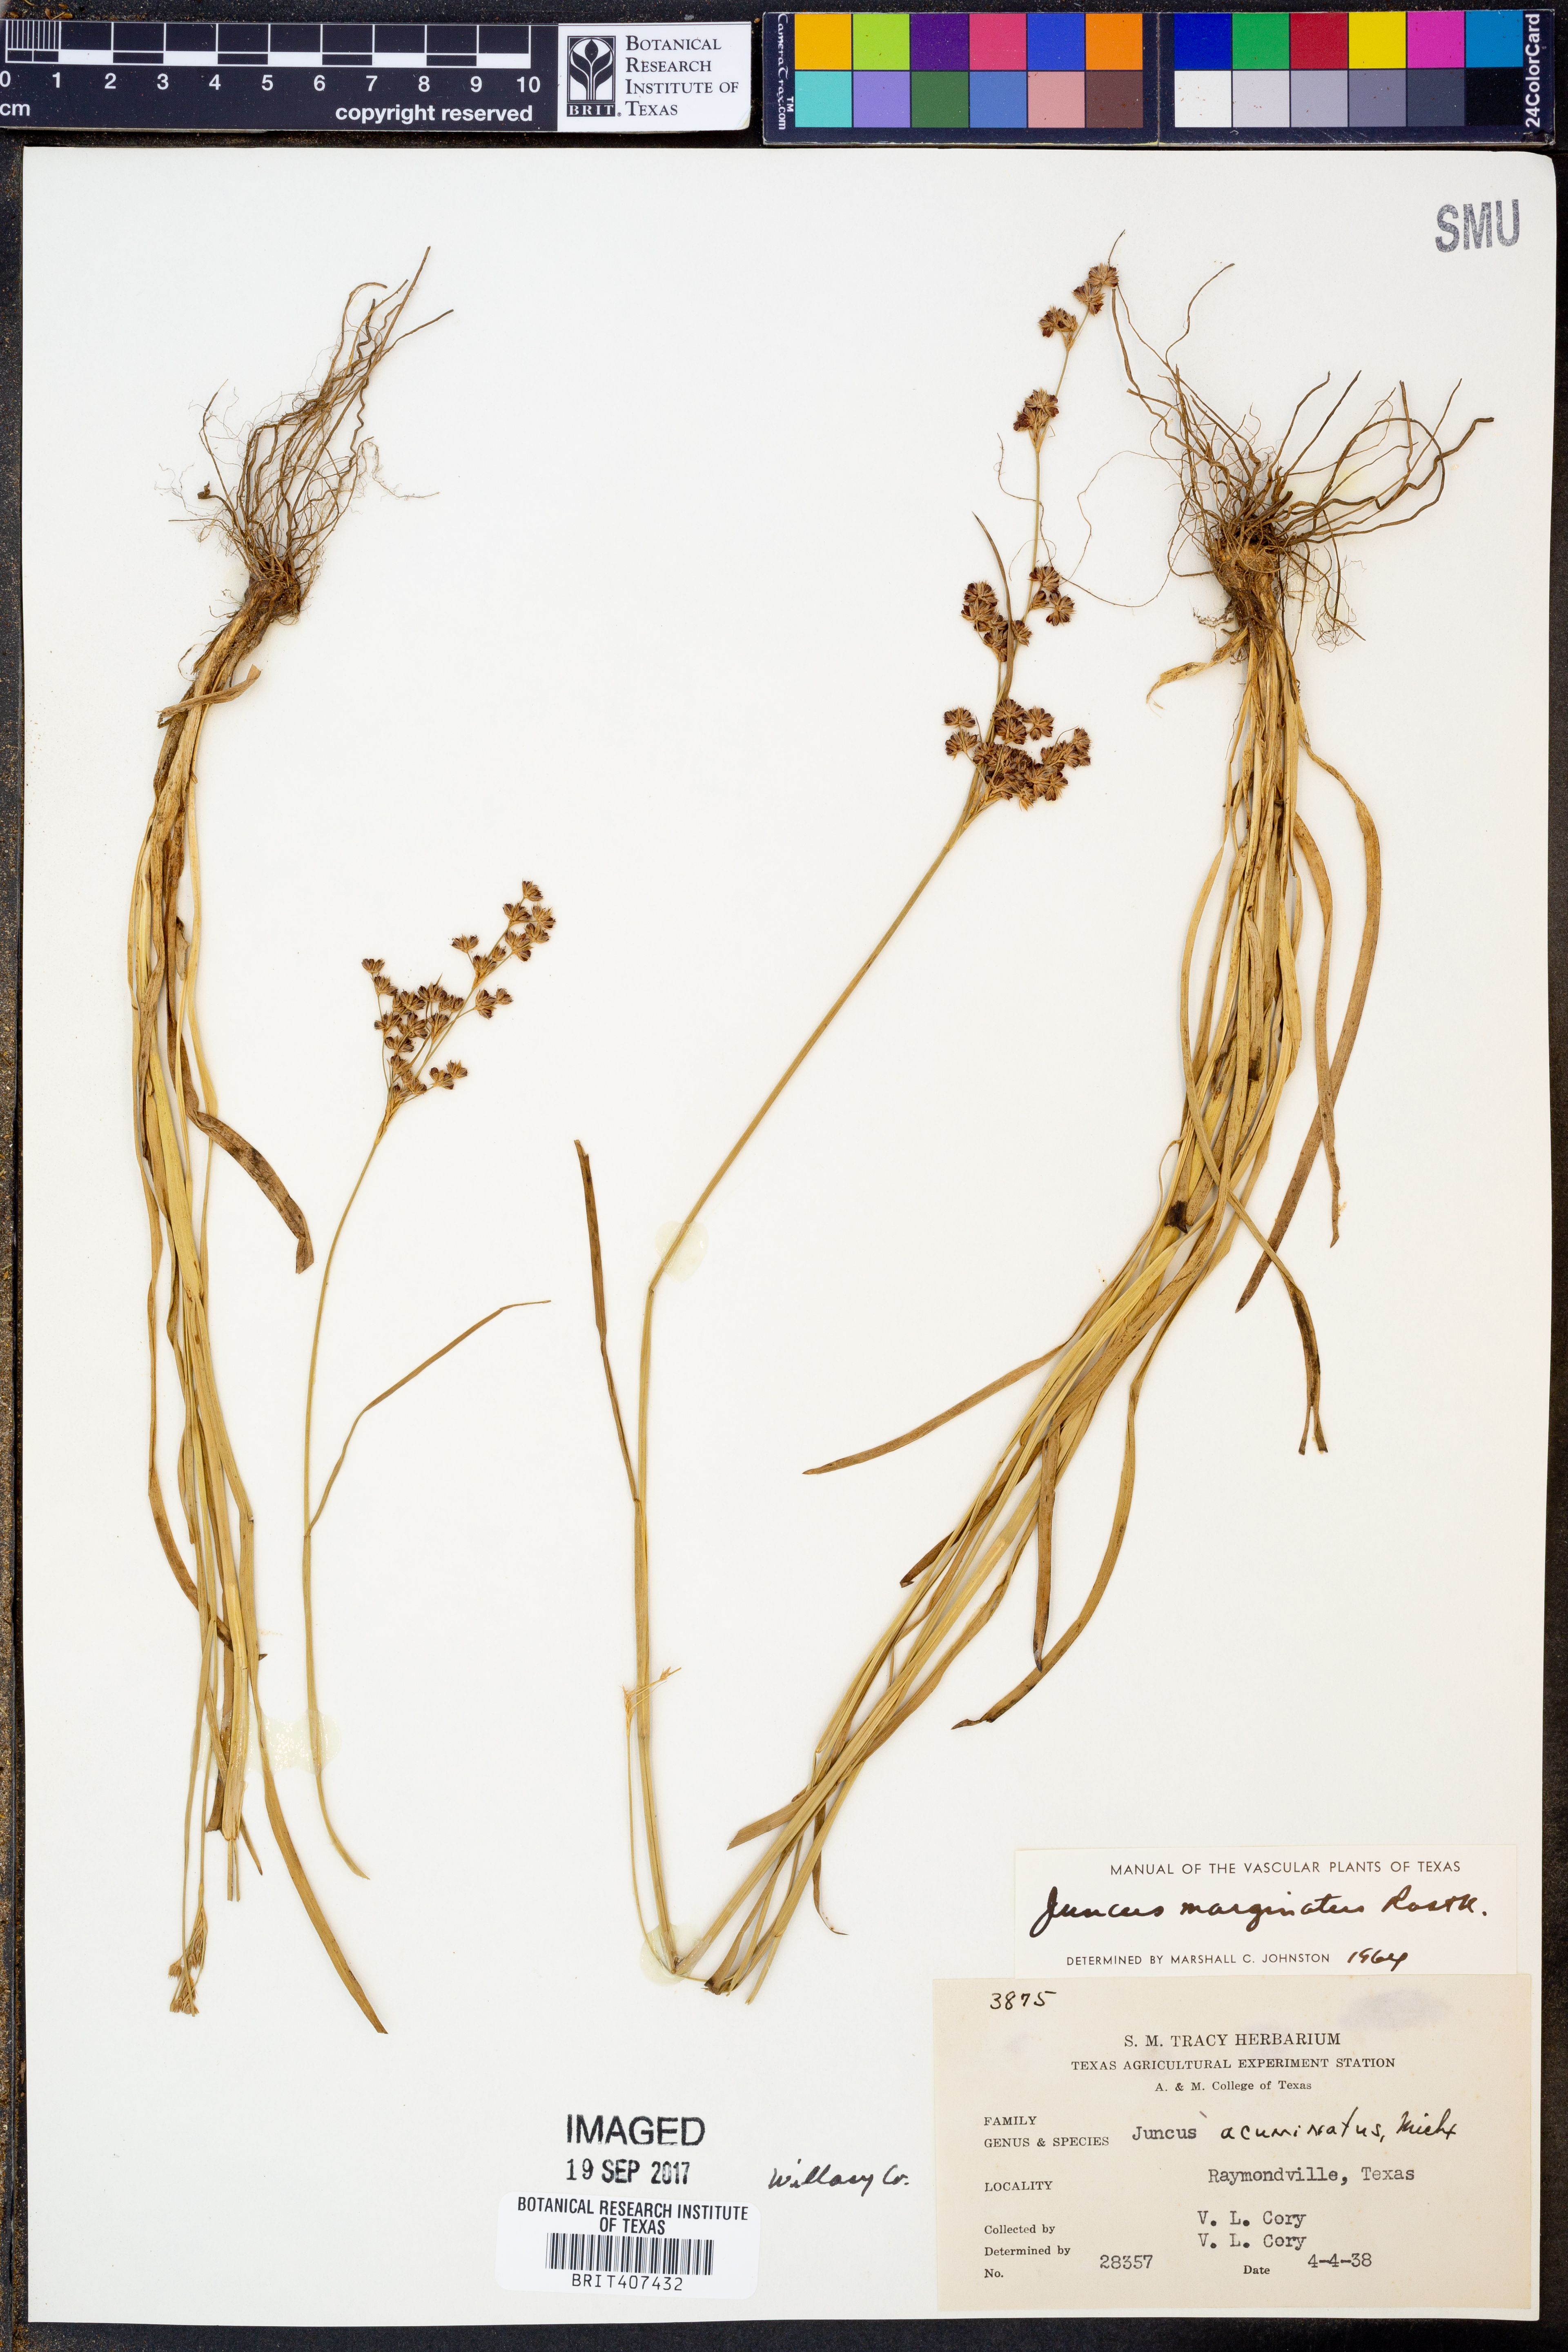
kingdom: Plantae
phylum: Tracheophyta
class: Liliopsida
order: Poales
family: Juncaceae
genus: Juncus
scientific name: Juncus marginatus
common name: Grass-leaf rush
